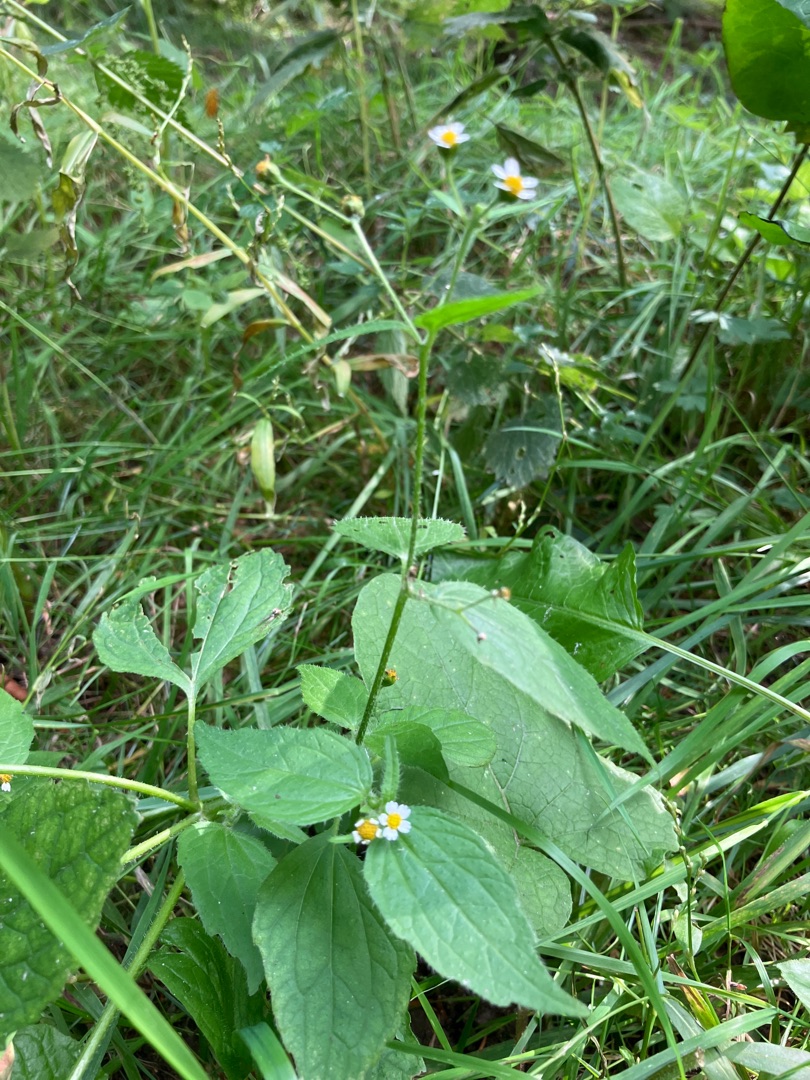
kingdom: Plantae
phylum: Tracheophyta
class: Magnoliopsida
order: Asterales
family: Asteraceae
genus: Galinsoga
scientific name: Galinsoga quadriradiata
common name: Kirtel-kortstråle
